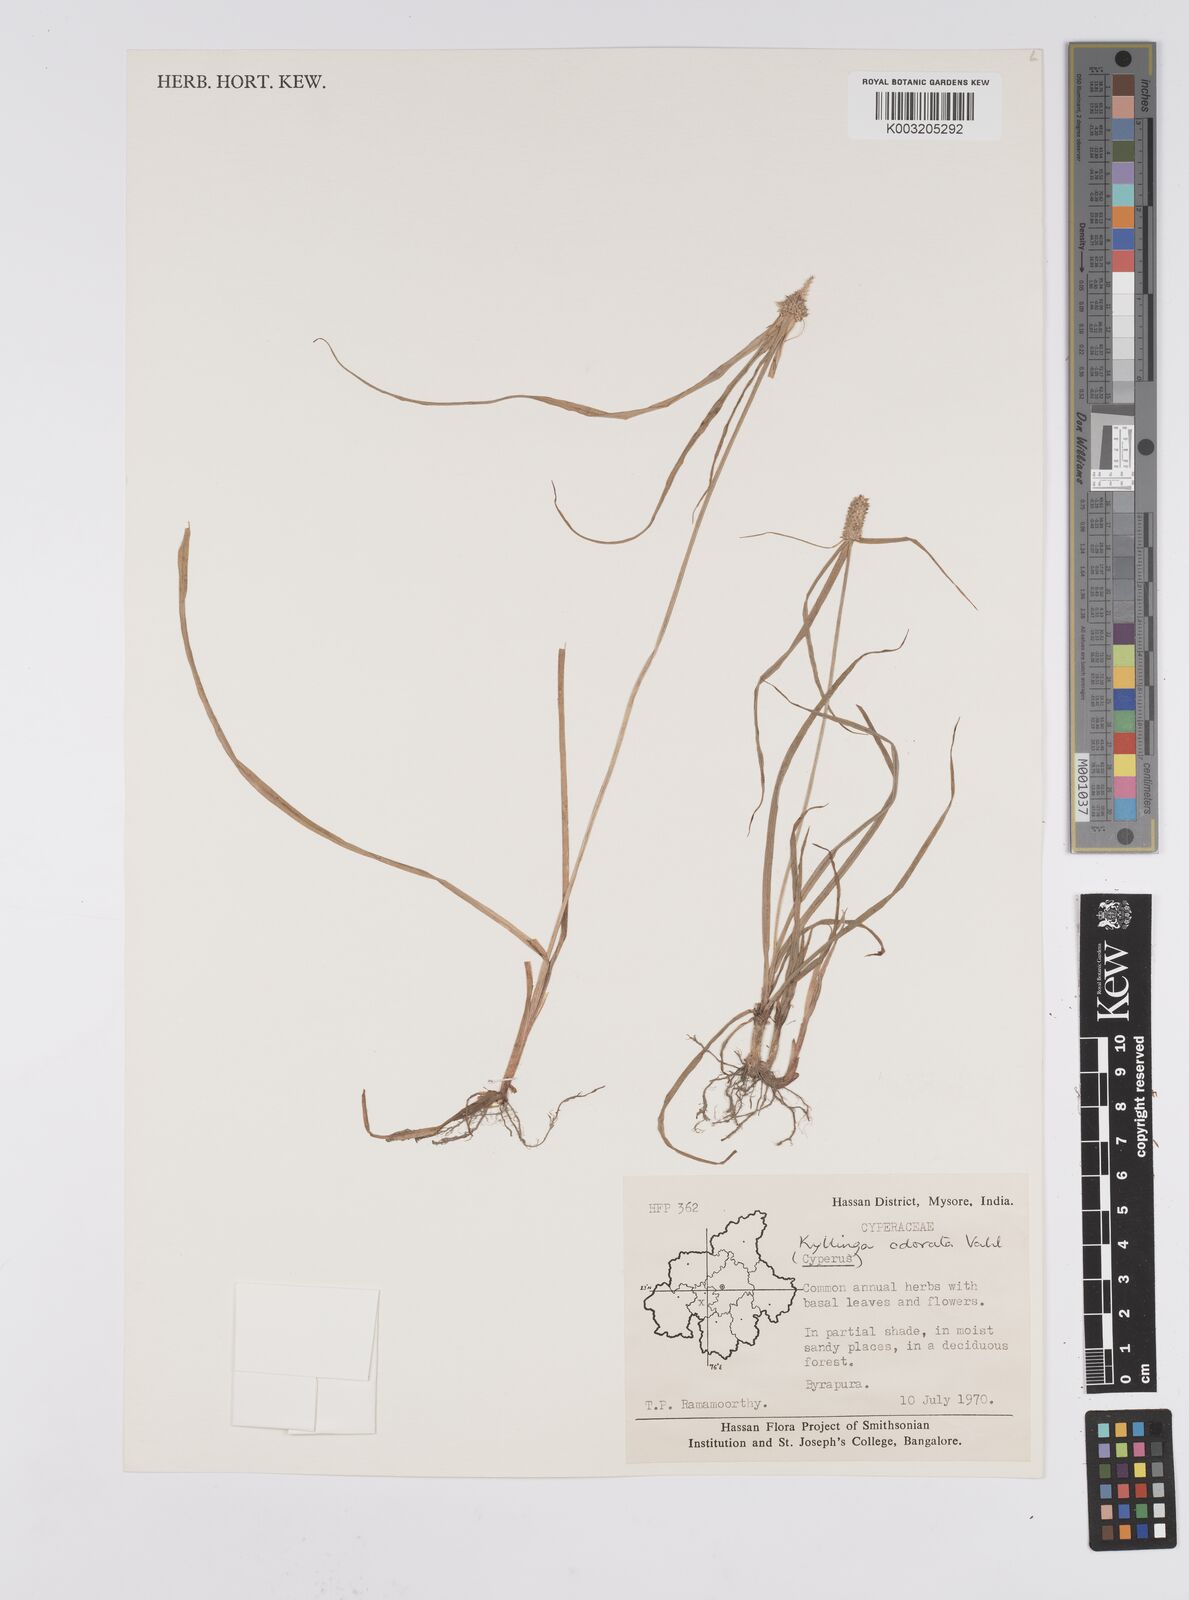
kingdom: Plantae
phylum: Tracheophyta
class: Liliopsida
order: Poales
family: Cyperaceae
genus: Cyperus
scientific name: Cyperus
